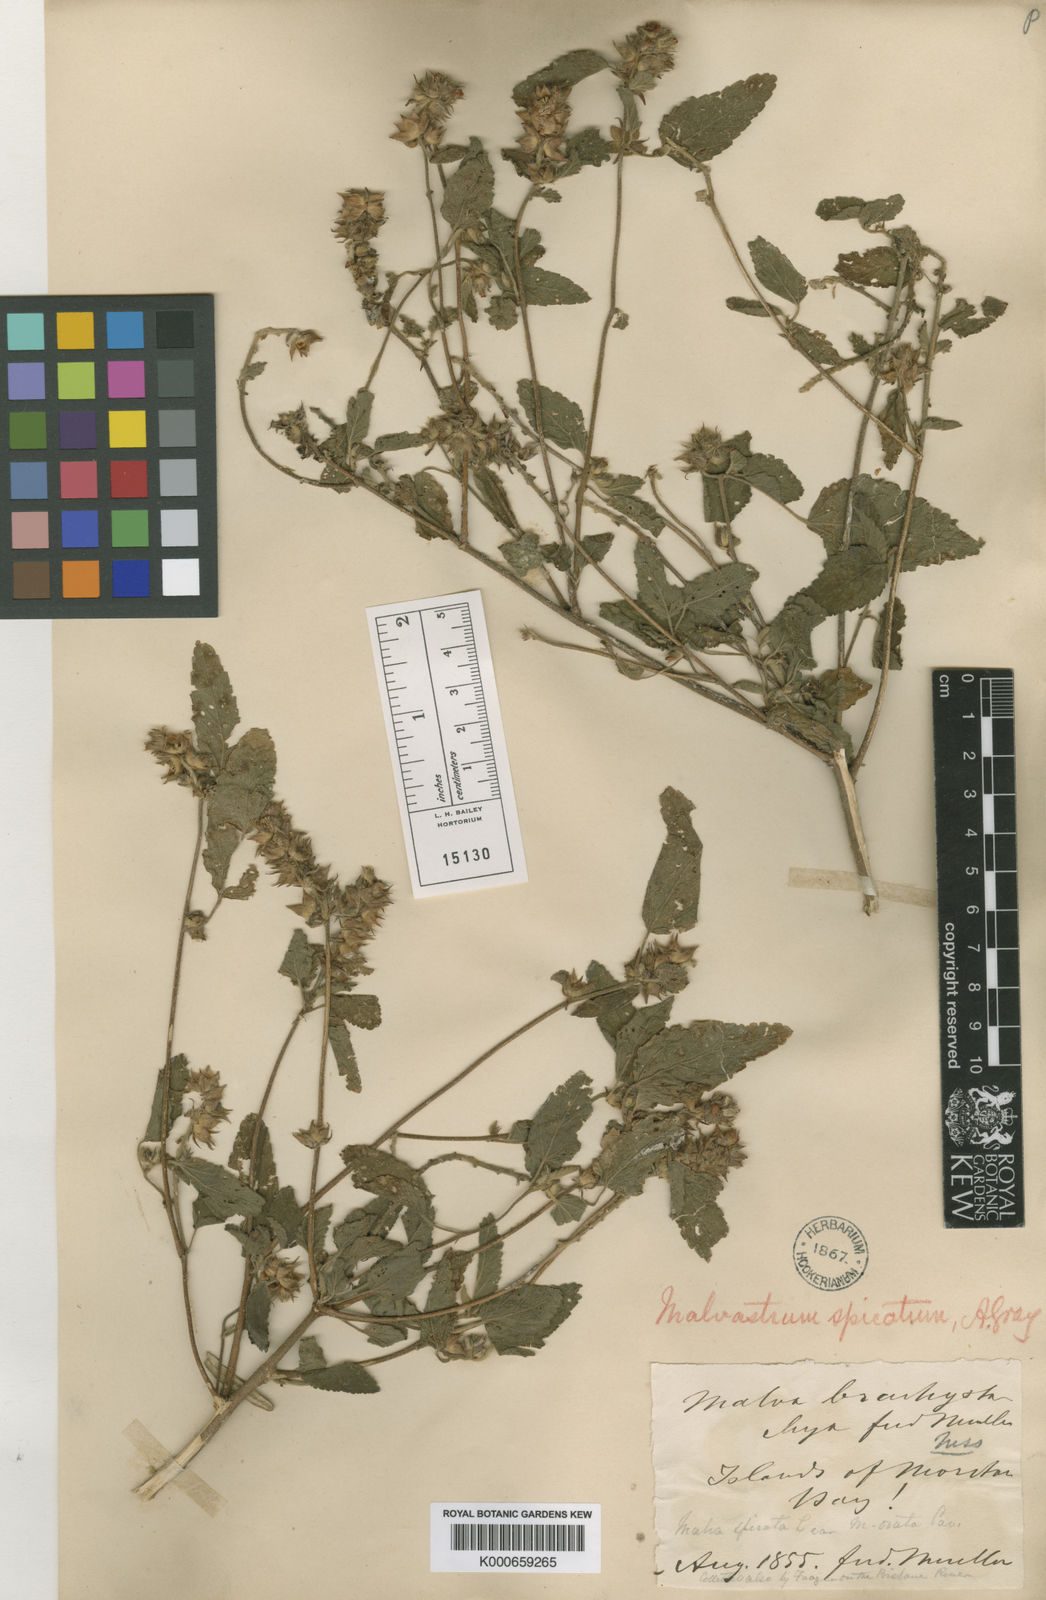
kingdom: Plantae
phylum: Tracheophyta
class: Magnoliopsida
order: Malvales
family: Malvaceae
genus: Melochia
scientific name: Melochia spicata
